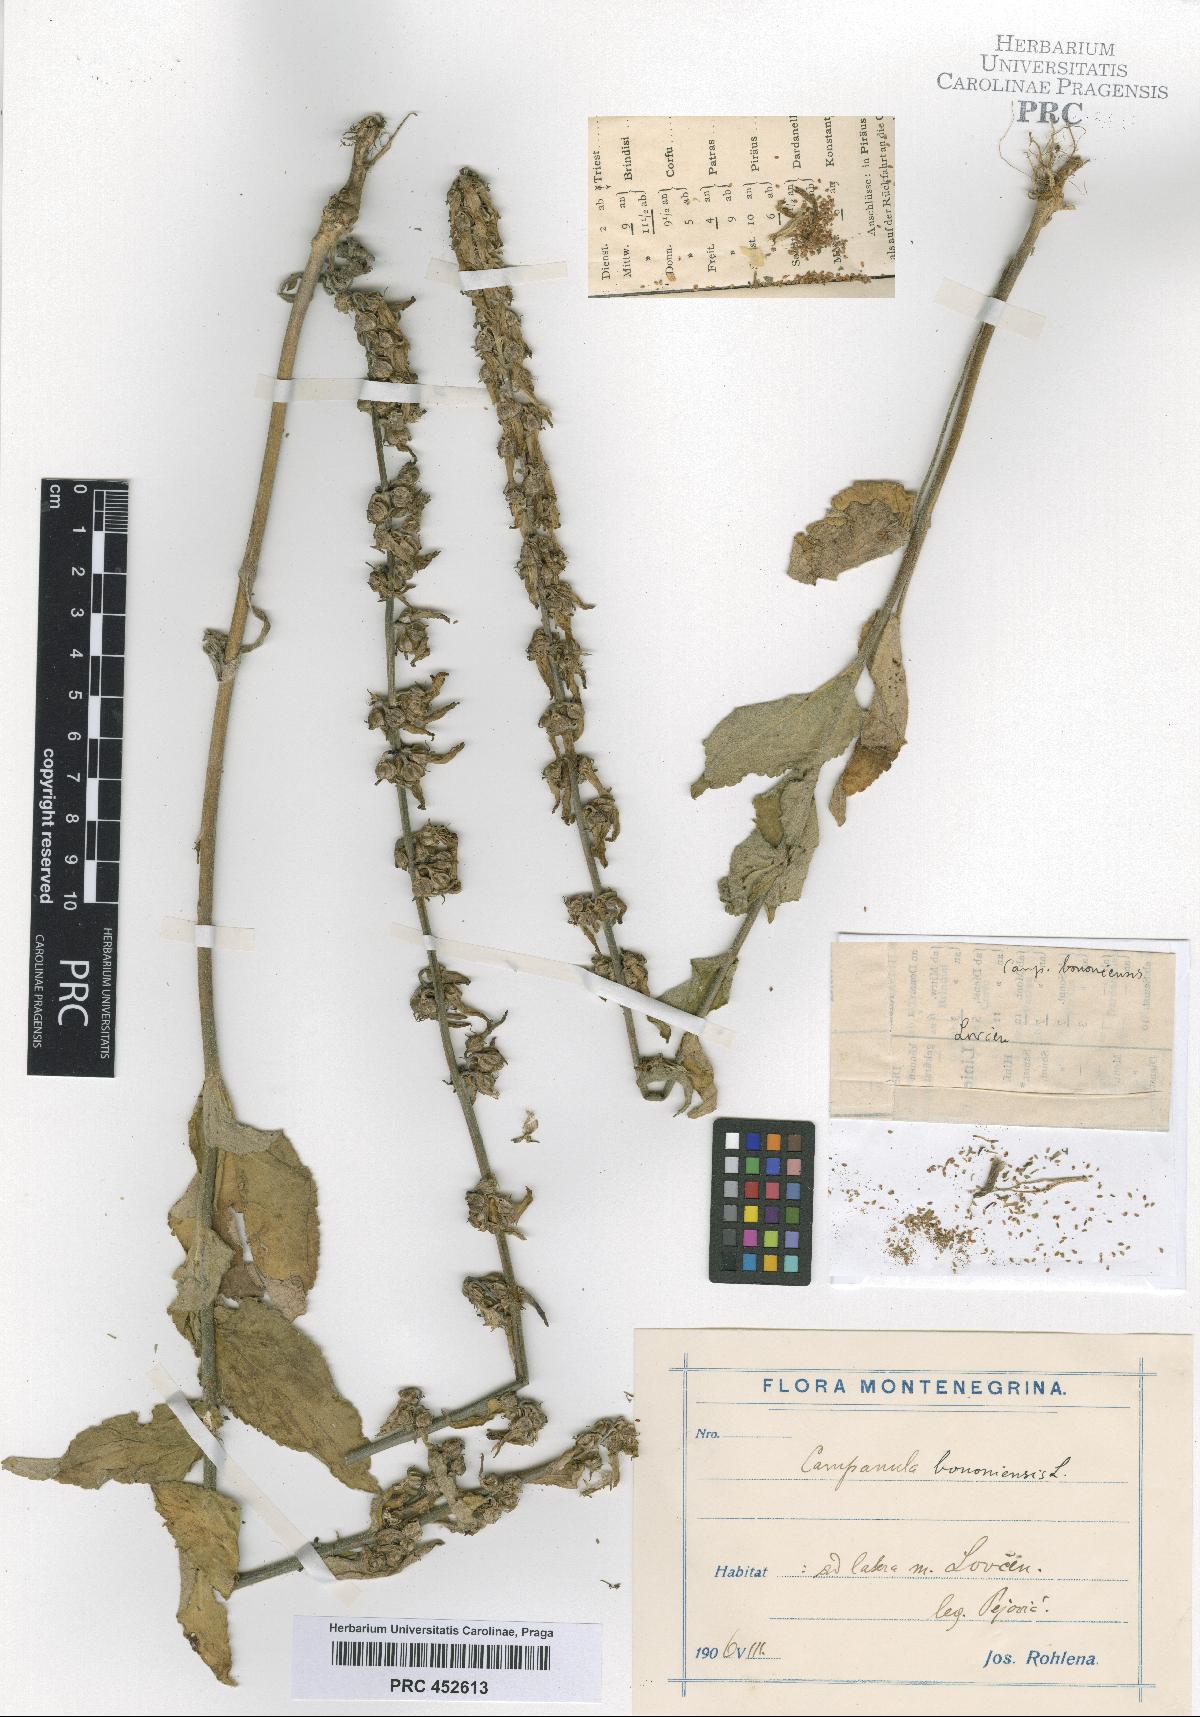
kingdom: Plantae
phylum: Tracheophyta
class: Magnoliopsida
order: Asterales
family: Campanulaceae
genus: Campanula
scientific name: Campanula bononiensis
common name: Pale bellflower
